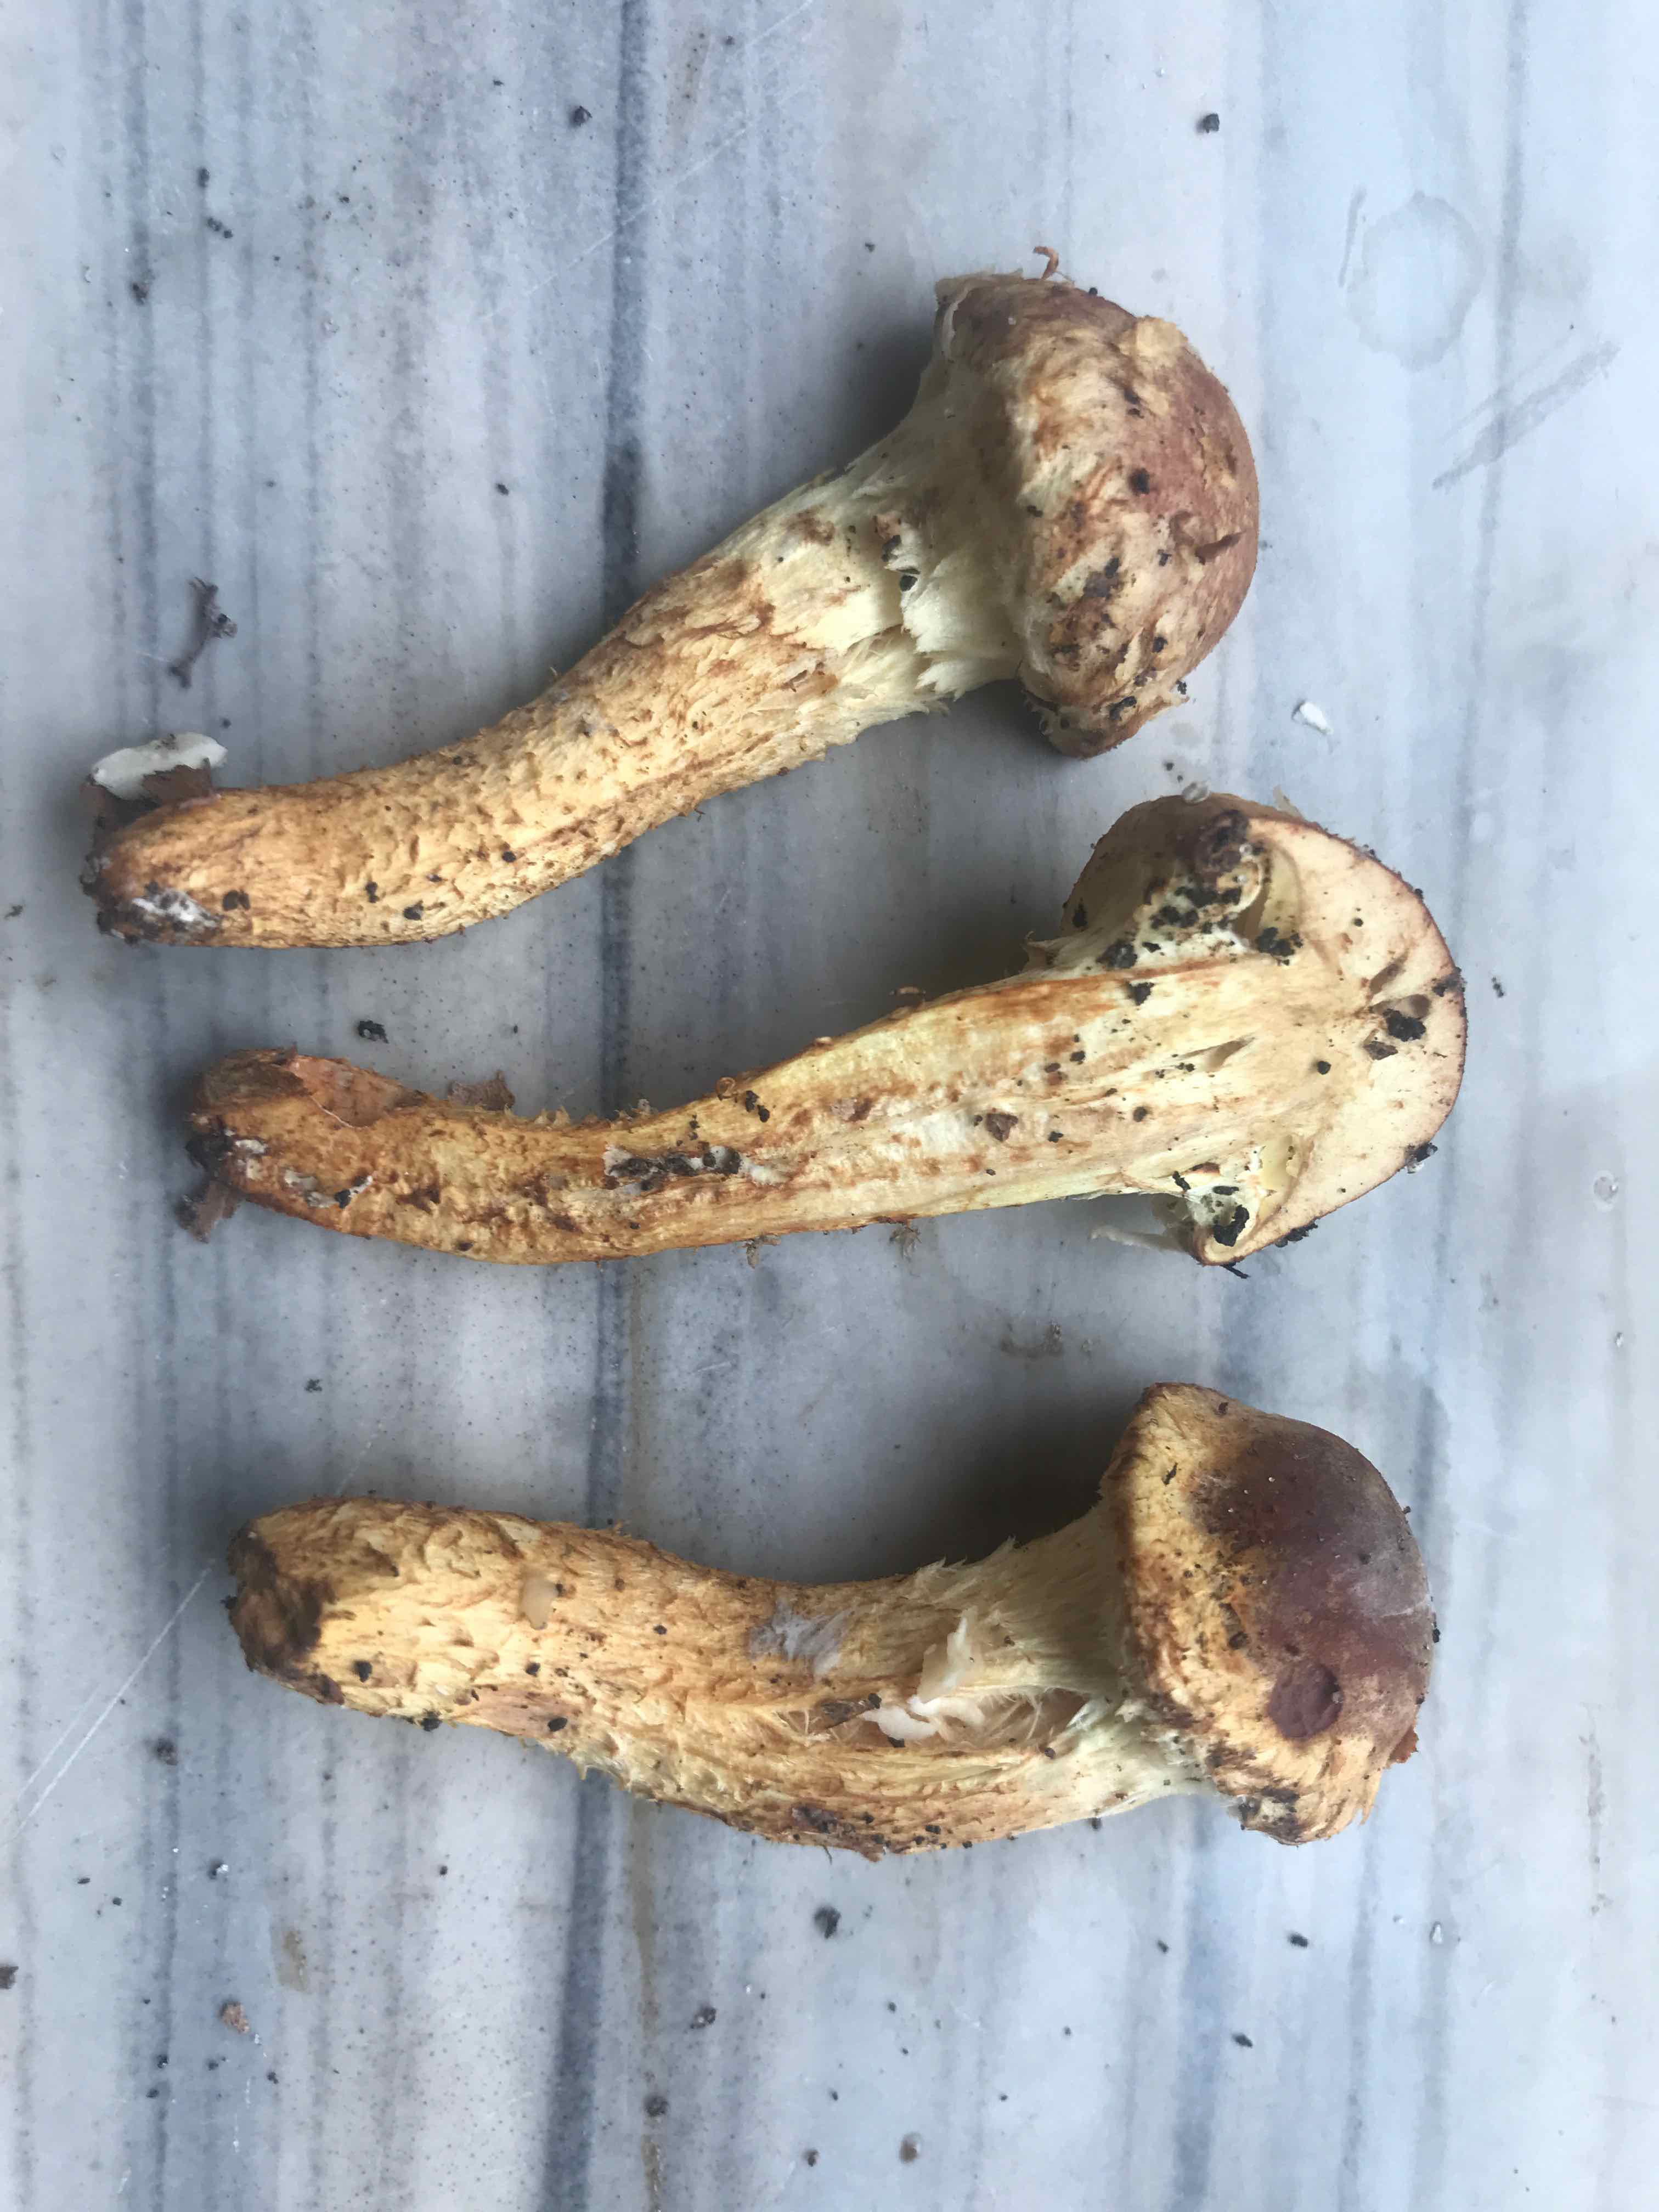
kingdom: Fungi
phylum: Basidiomycota
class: Agaricomycetes
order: Agaricales
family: Strophariaceae
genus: Pholiota
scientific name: Pholiota
